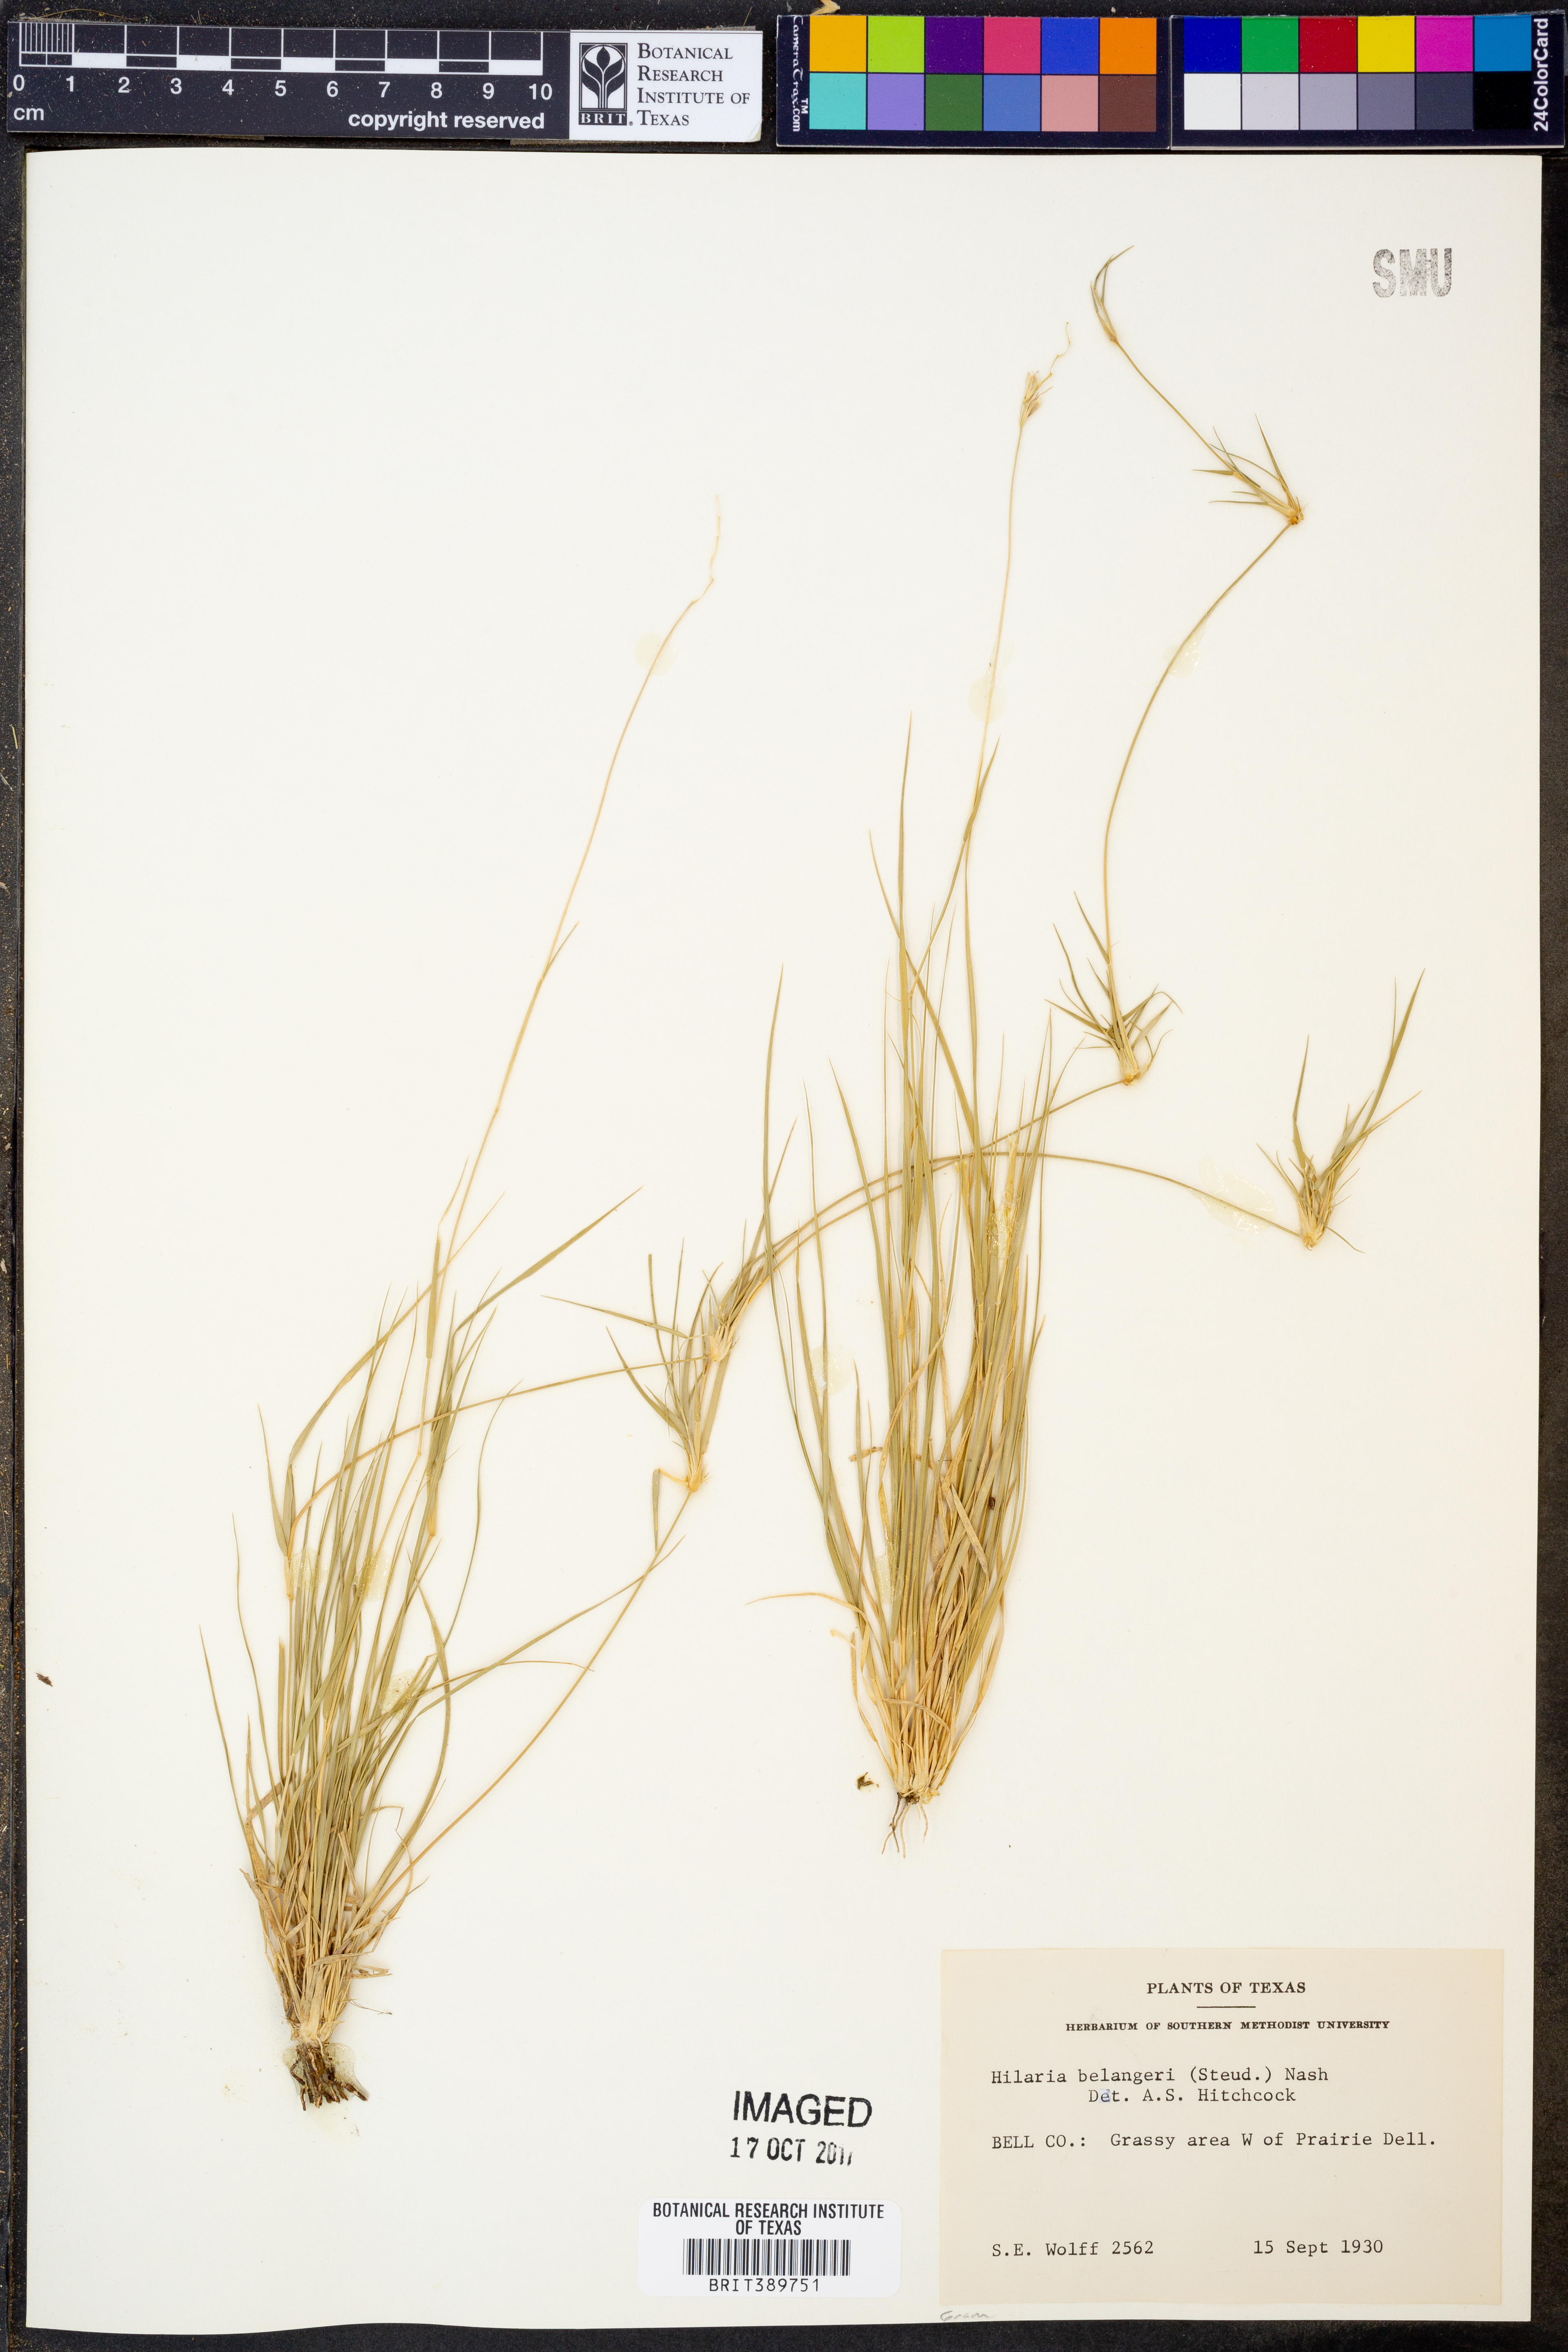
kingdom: Plantae
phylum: Tracheophyta
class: Liliopsida
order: Poales
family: Poaceae
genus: Hilaria
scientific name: Hilaria belangeri
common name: Curly-mesquite
